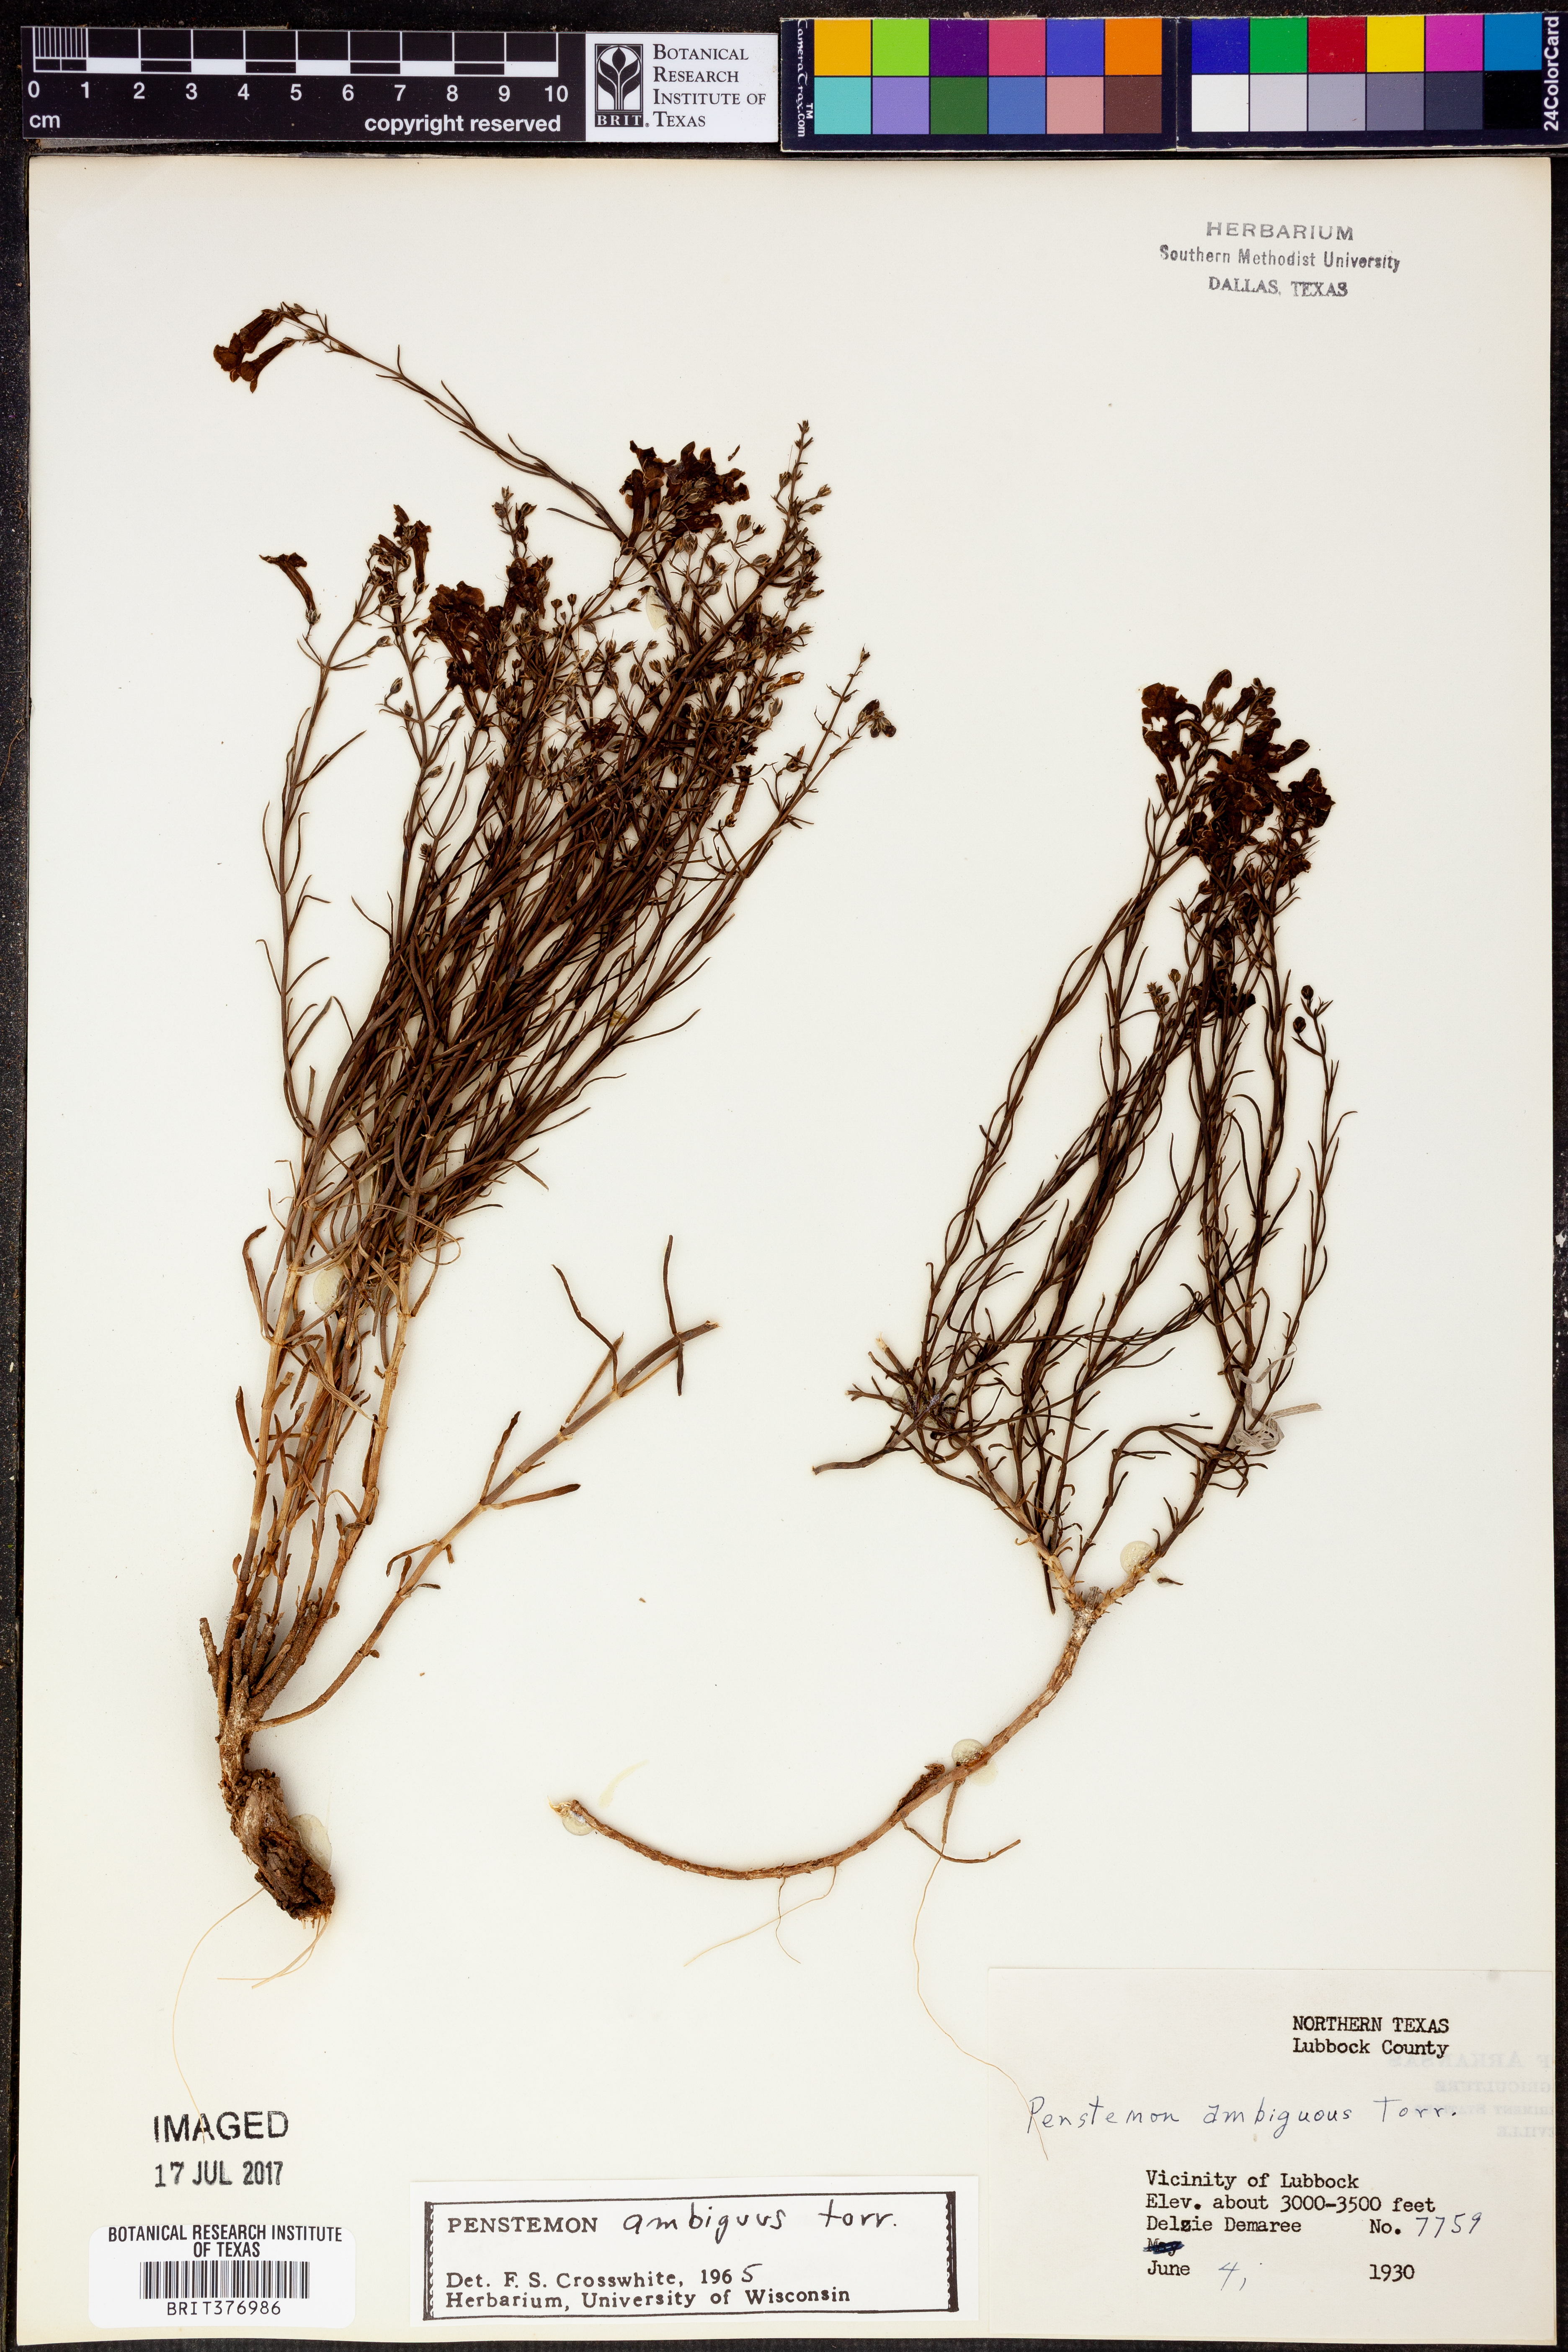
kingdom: Plantae
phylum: Tracheophyta
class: Magnoliopsida
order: Lamiales
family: Plantaginaceae
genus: Penstemon
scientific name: Penstemon ambiguus
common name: Bush penstemon
